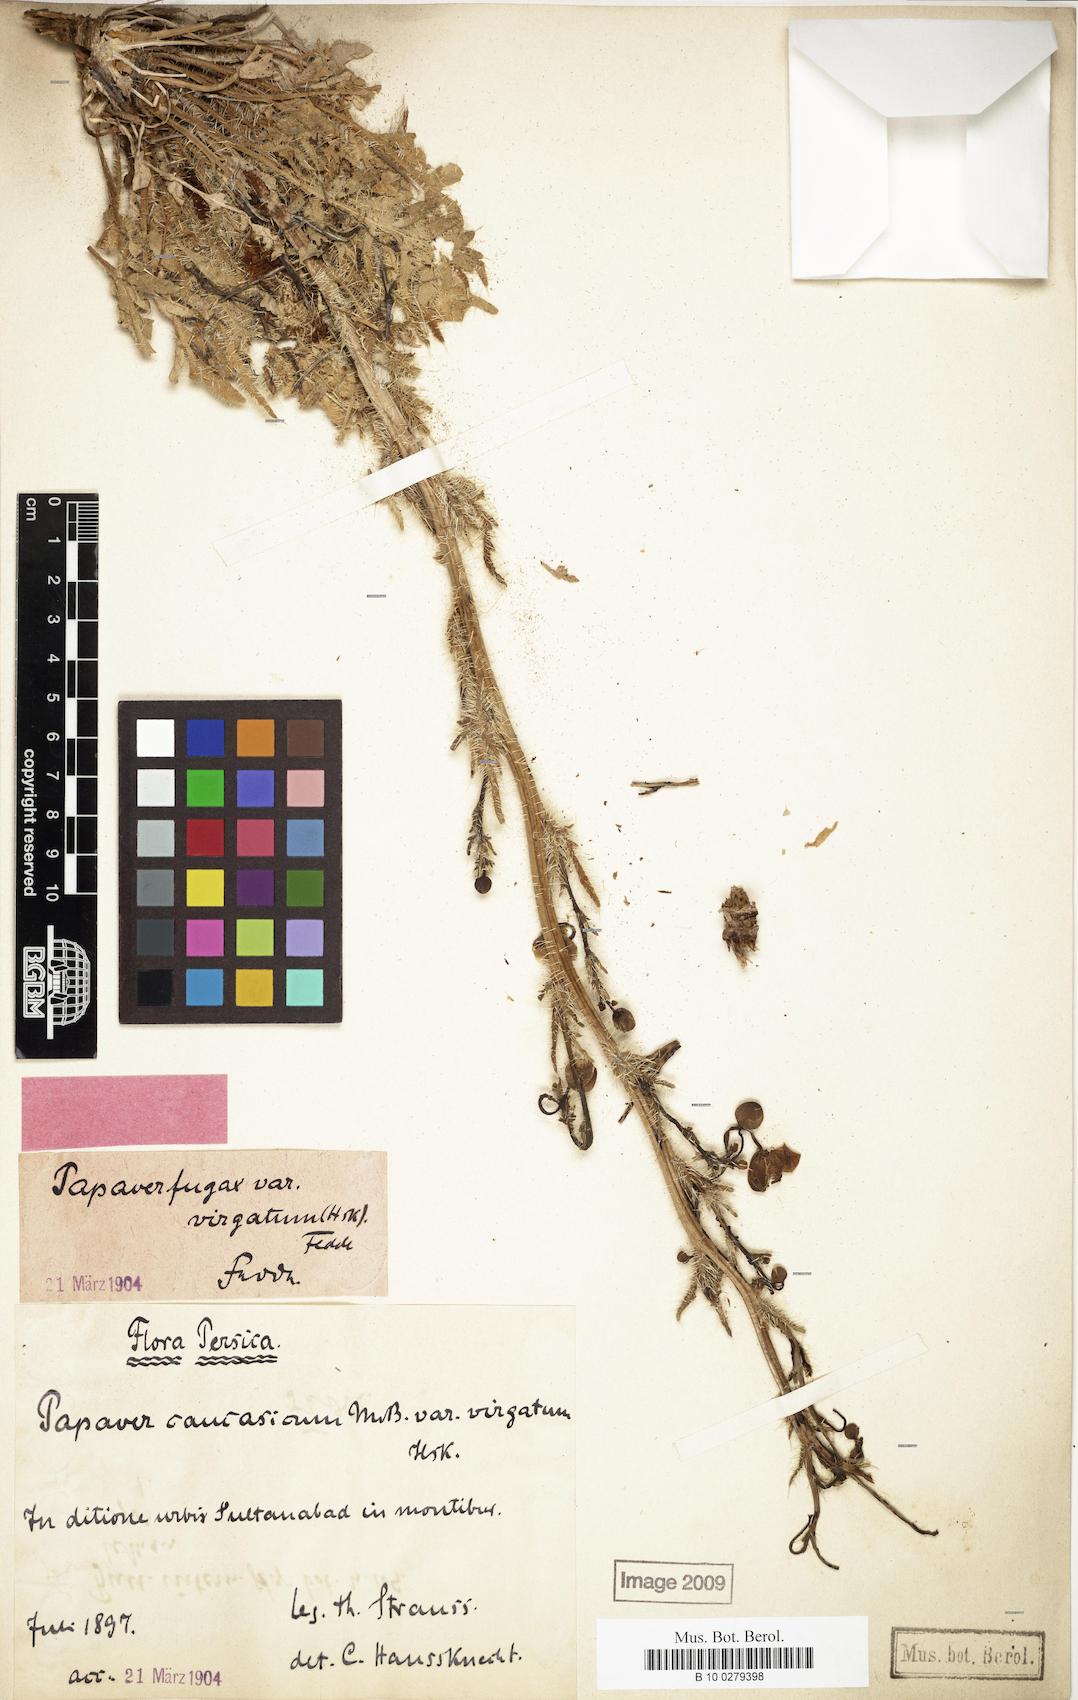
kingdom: Plantae
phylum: Tracheophyta
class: Magnoliopsida
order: Ranunculales
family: Papaveraceae
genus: Papaver
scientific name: Papaver armeniacum
